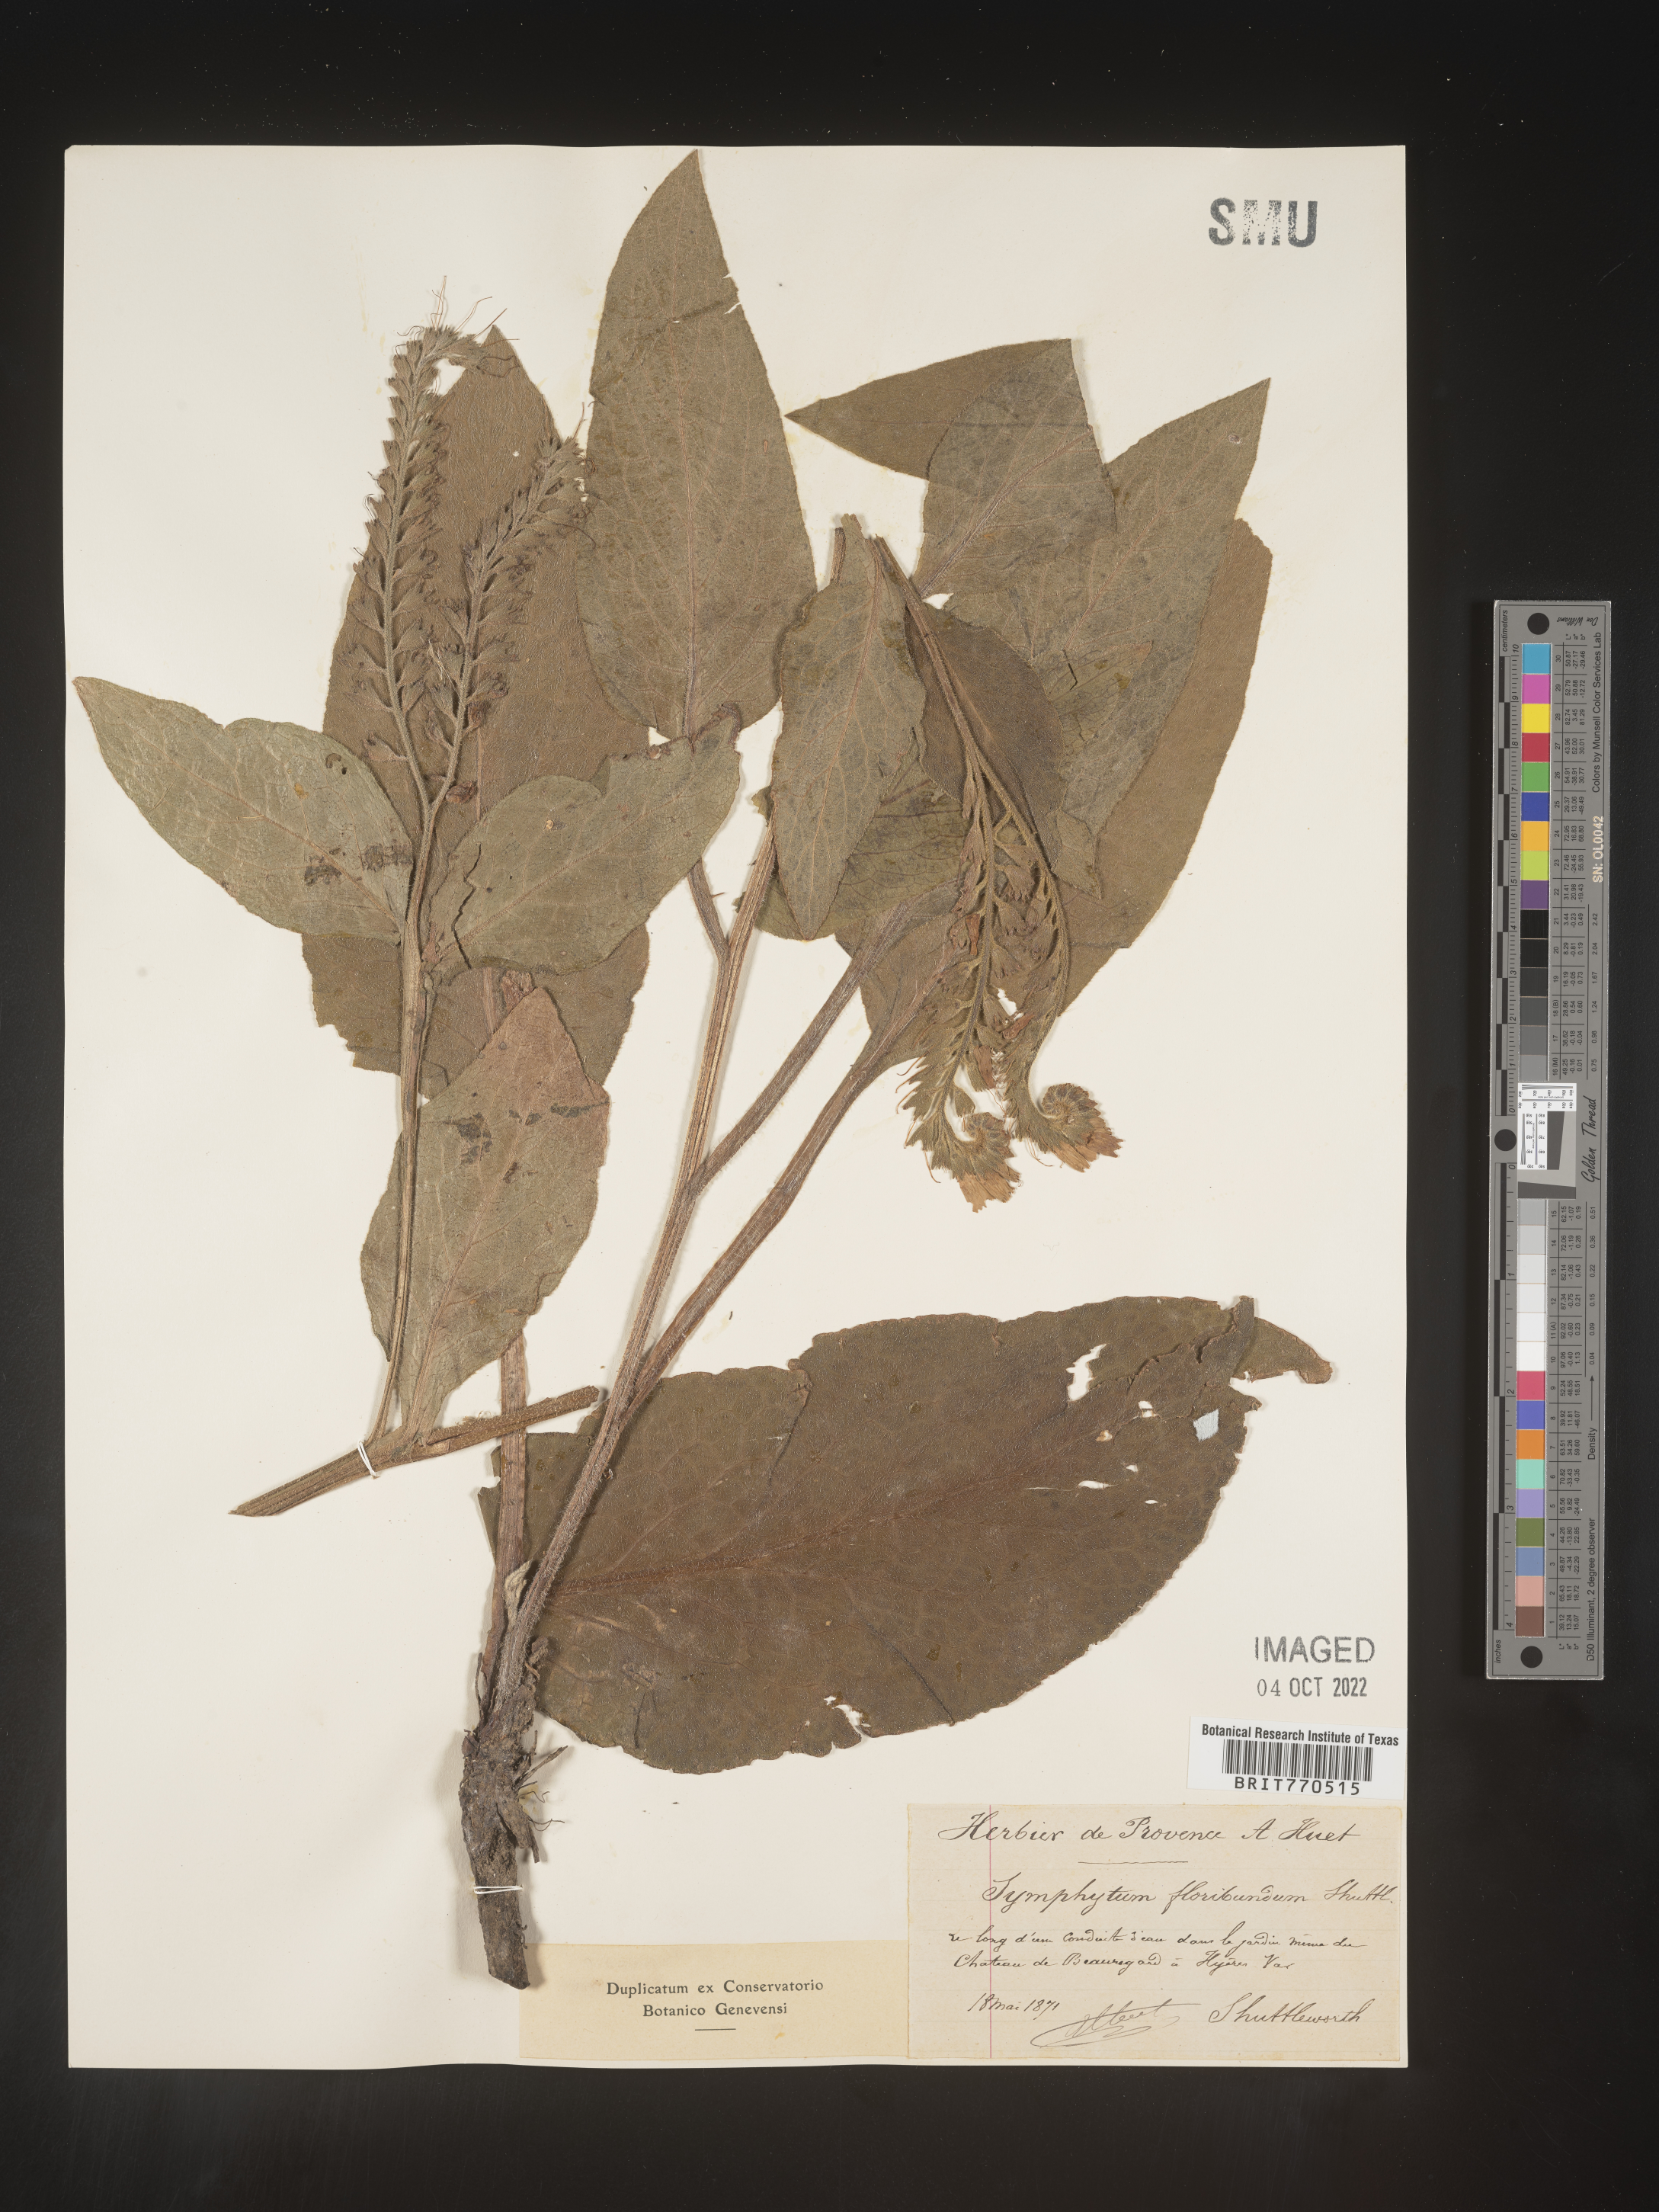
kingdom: Plantae
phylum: Tracheophyta
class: Magnoliopsida
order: Boraginales
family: Boraginaceae
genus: Symphytum
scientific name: Symphytum
